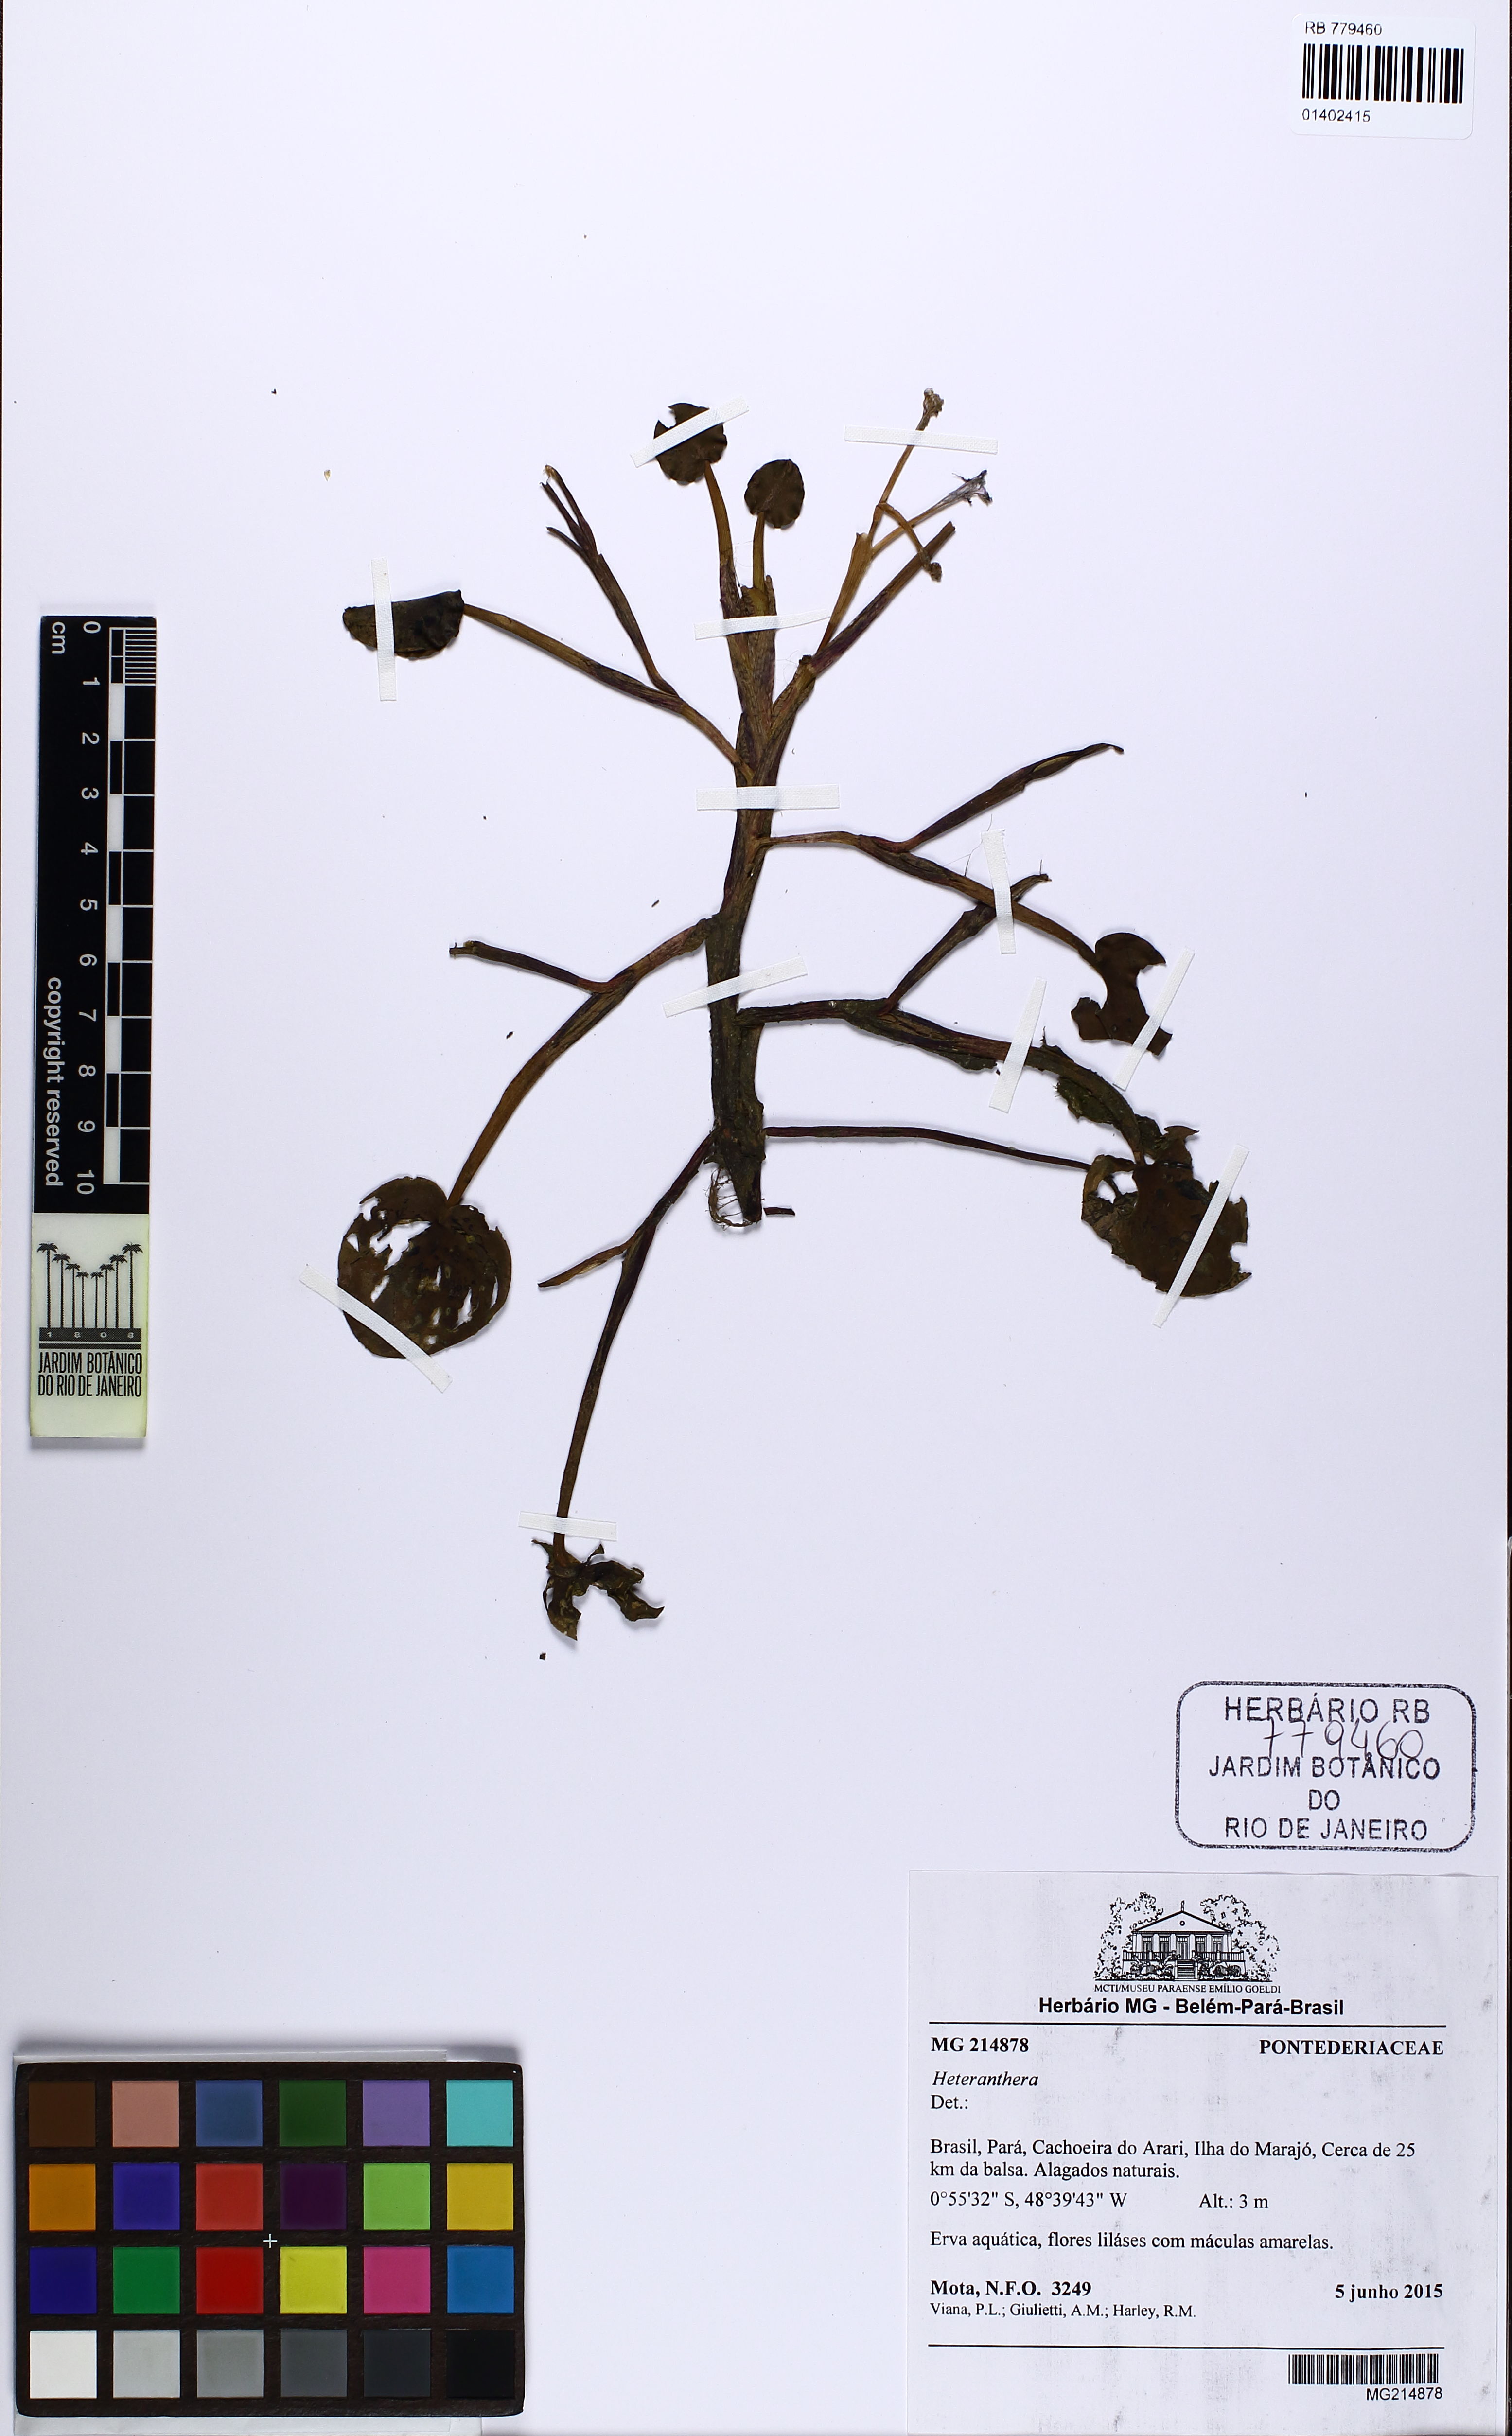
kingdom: Plantae
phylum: Tracheophyta
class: Liliopsida
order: Commelinales
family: Pontederiaceae
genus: Heteranthera
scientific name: Heteranthera
